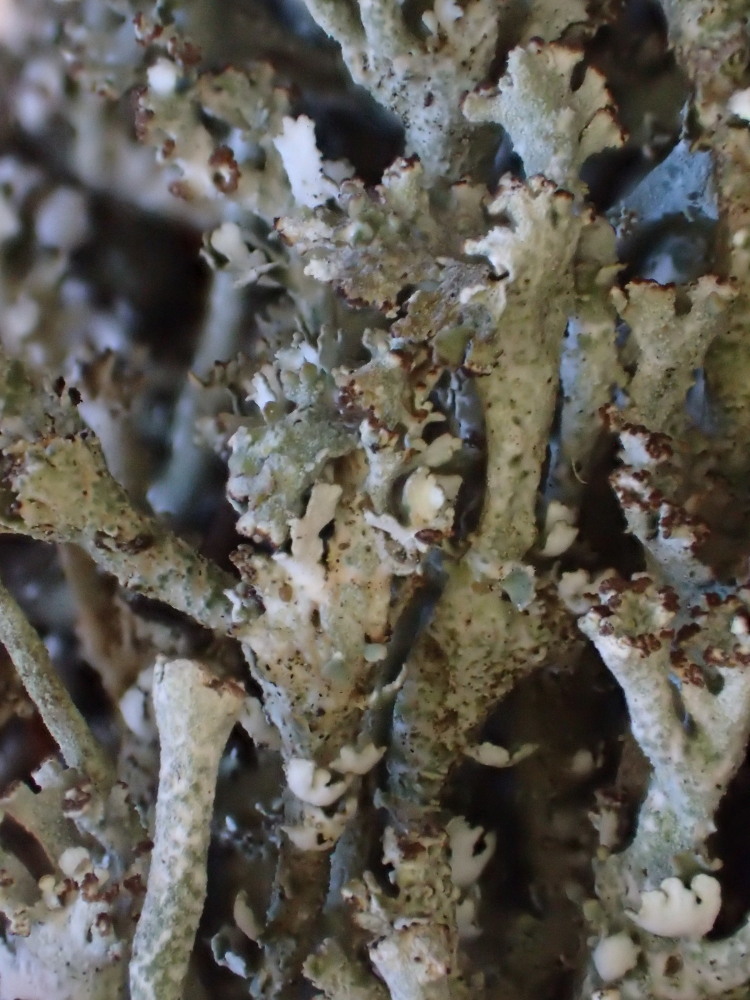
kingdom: Fungi
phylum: Ascomycota
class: Lecanoromycetes
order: Lecanorales
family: Cladoniaceae
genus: Cladonia
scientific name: Cladonia ramulosa
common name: kliddet bægerlav
